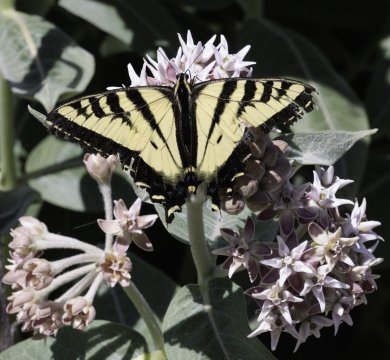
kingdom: Animalia
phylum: Arthropoda
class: Insecta
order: Lepidoptera
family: Papilionidae
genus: Pterourus
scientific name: Pterourus rutulus
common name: Western Tiger Swallowtail
